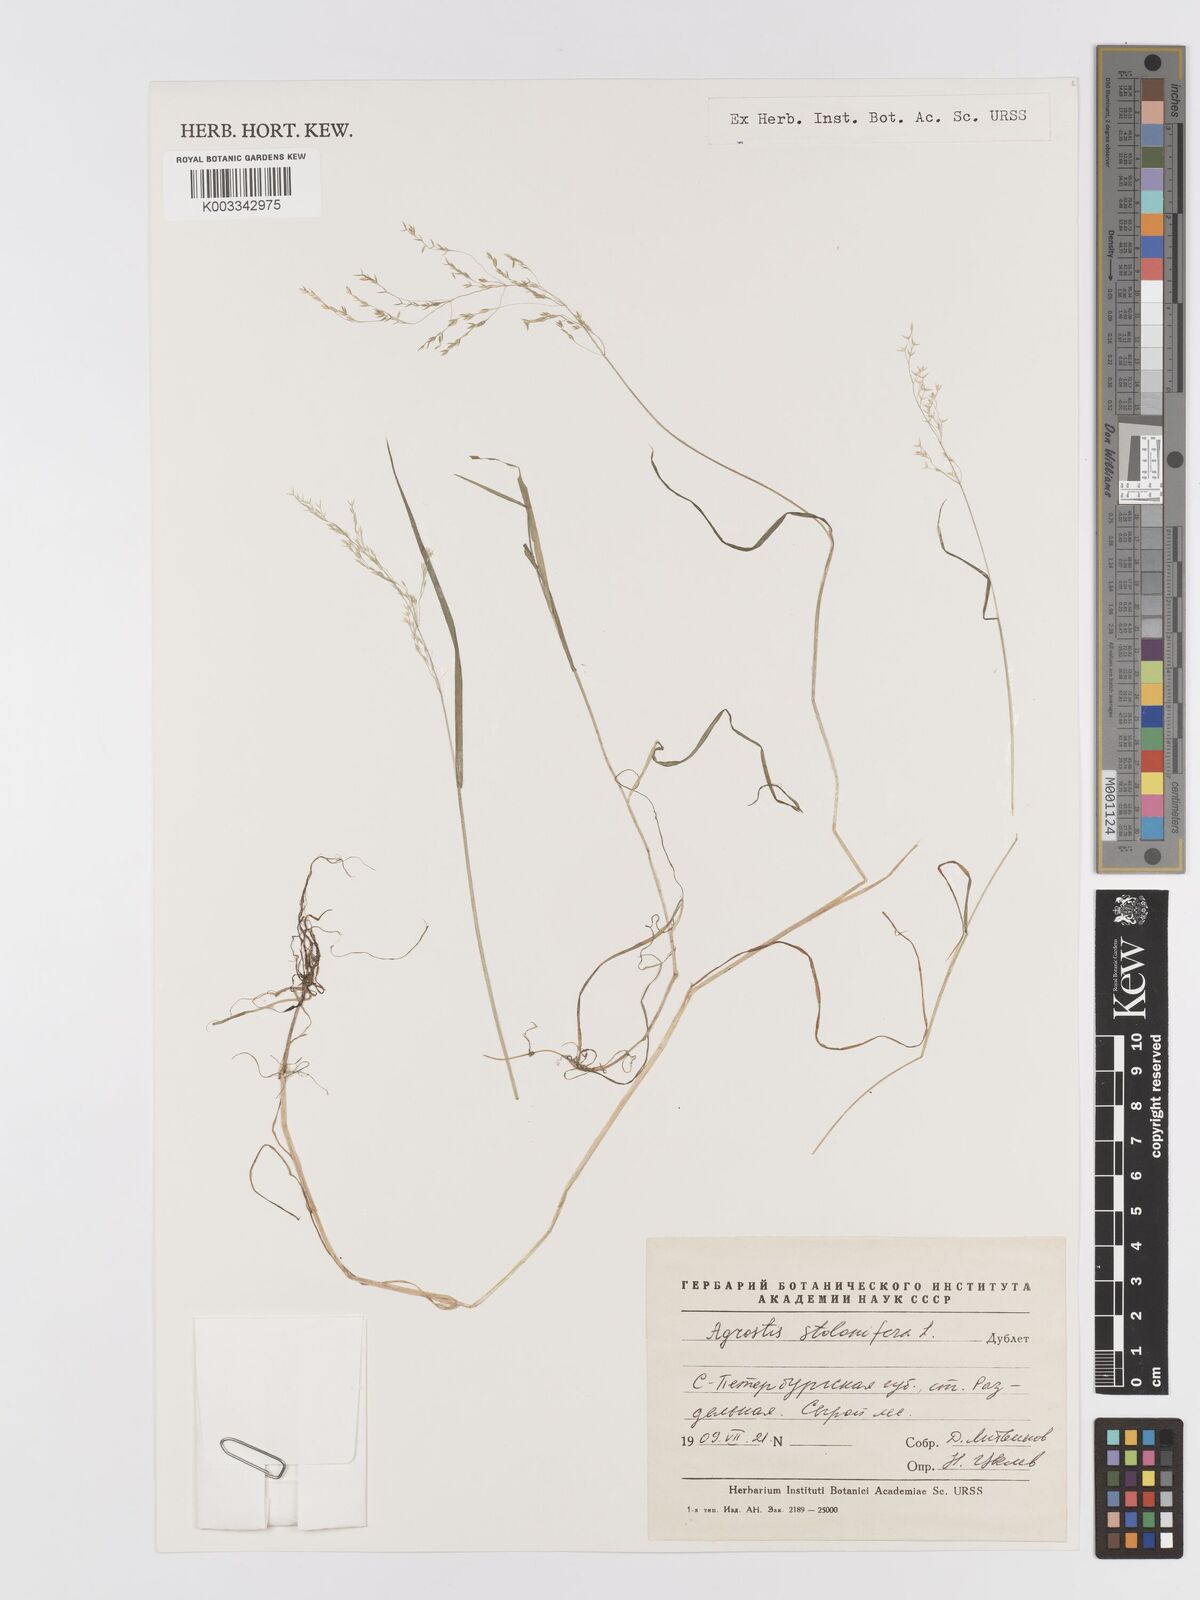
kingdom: Plantae
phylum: Tracheophyta
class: Liliopsida
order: Poales
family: Poaceae
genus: Agrostis
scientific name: Agrostis stolonifera
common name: Creeping bentgrass
